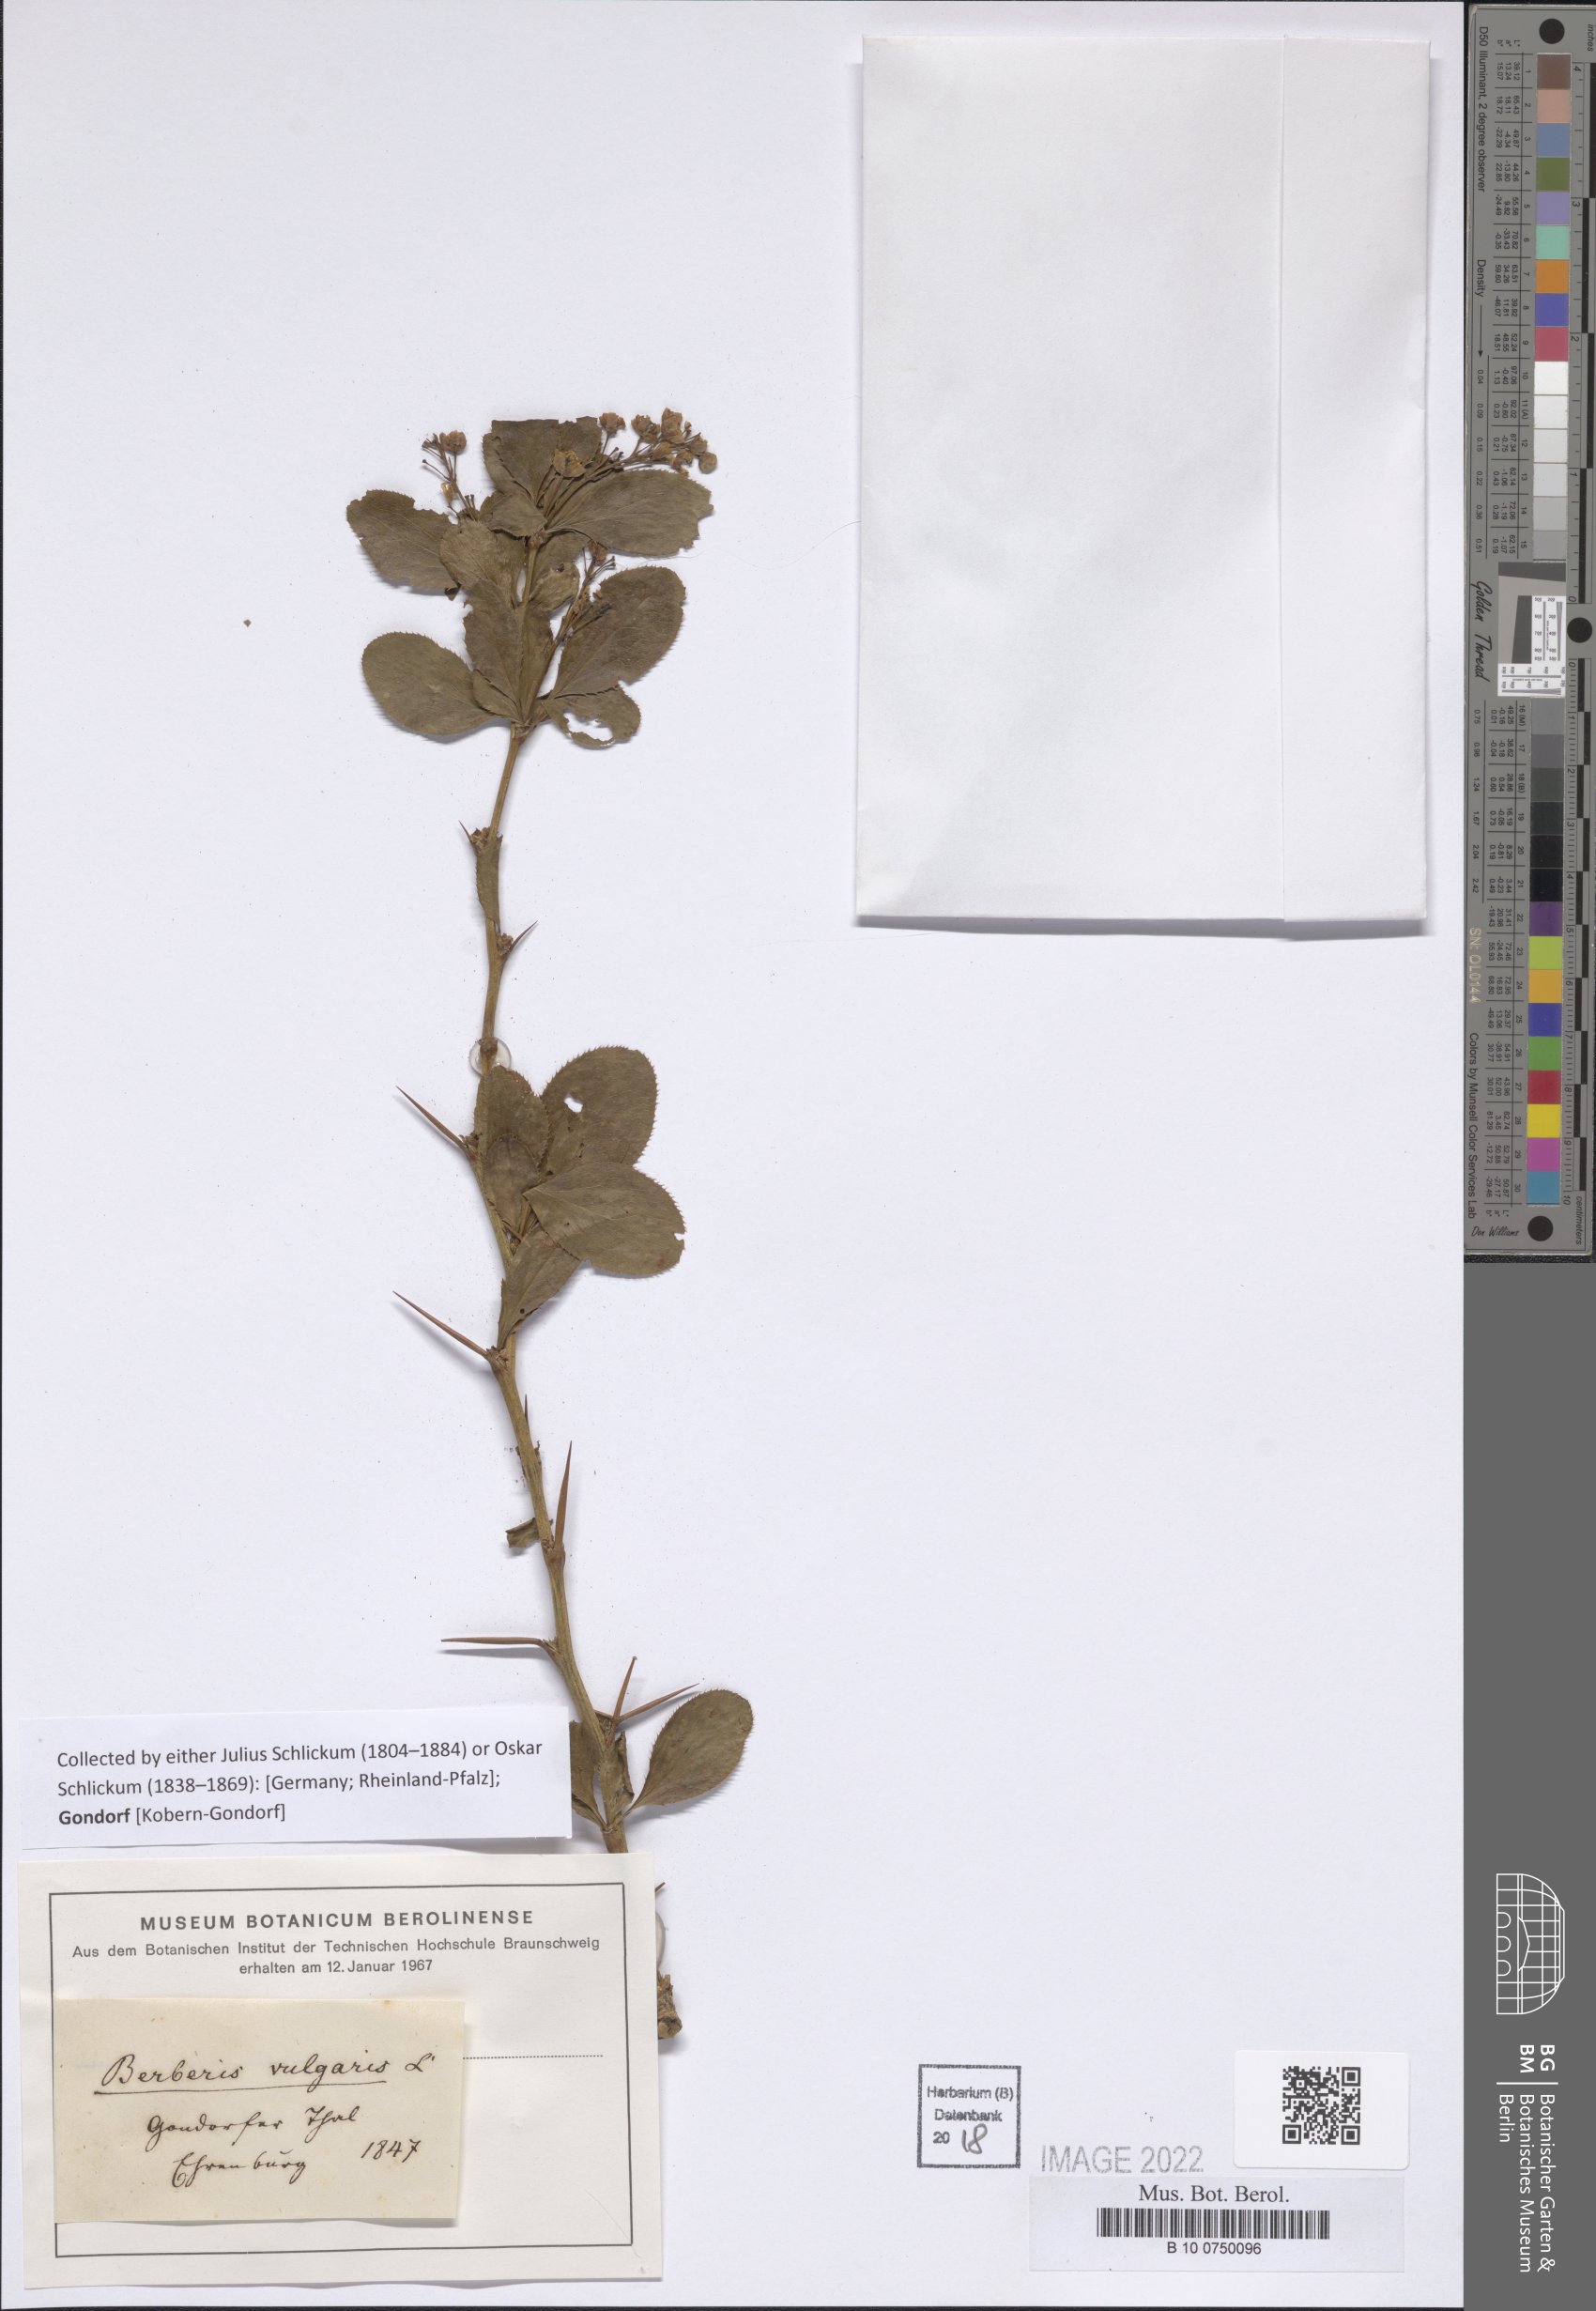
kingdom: Plantae
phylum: Tracheophyta
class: Magnoliopsida
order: Ranunculales
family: Berberidaceae
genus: Berberis
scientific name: Berberis vulgaris
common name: Barberry
